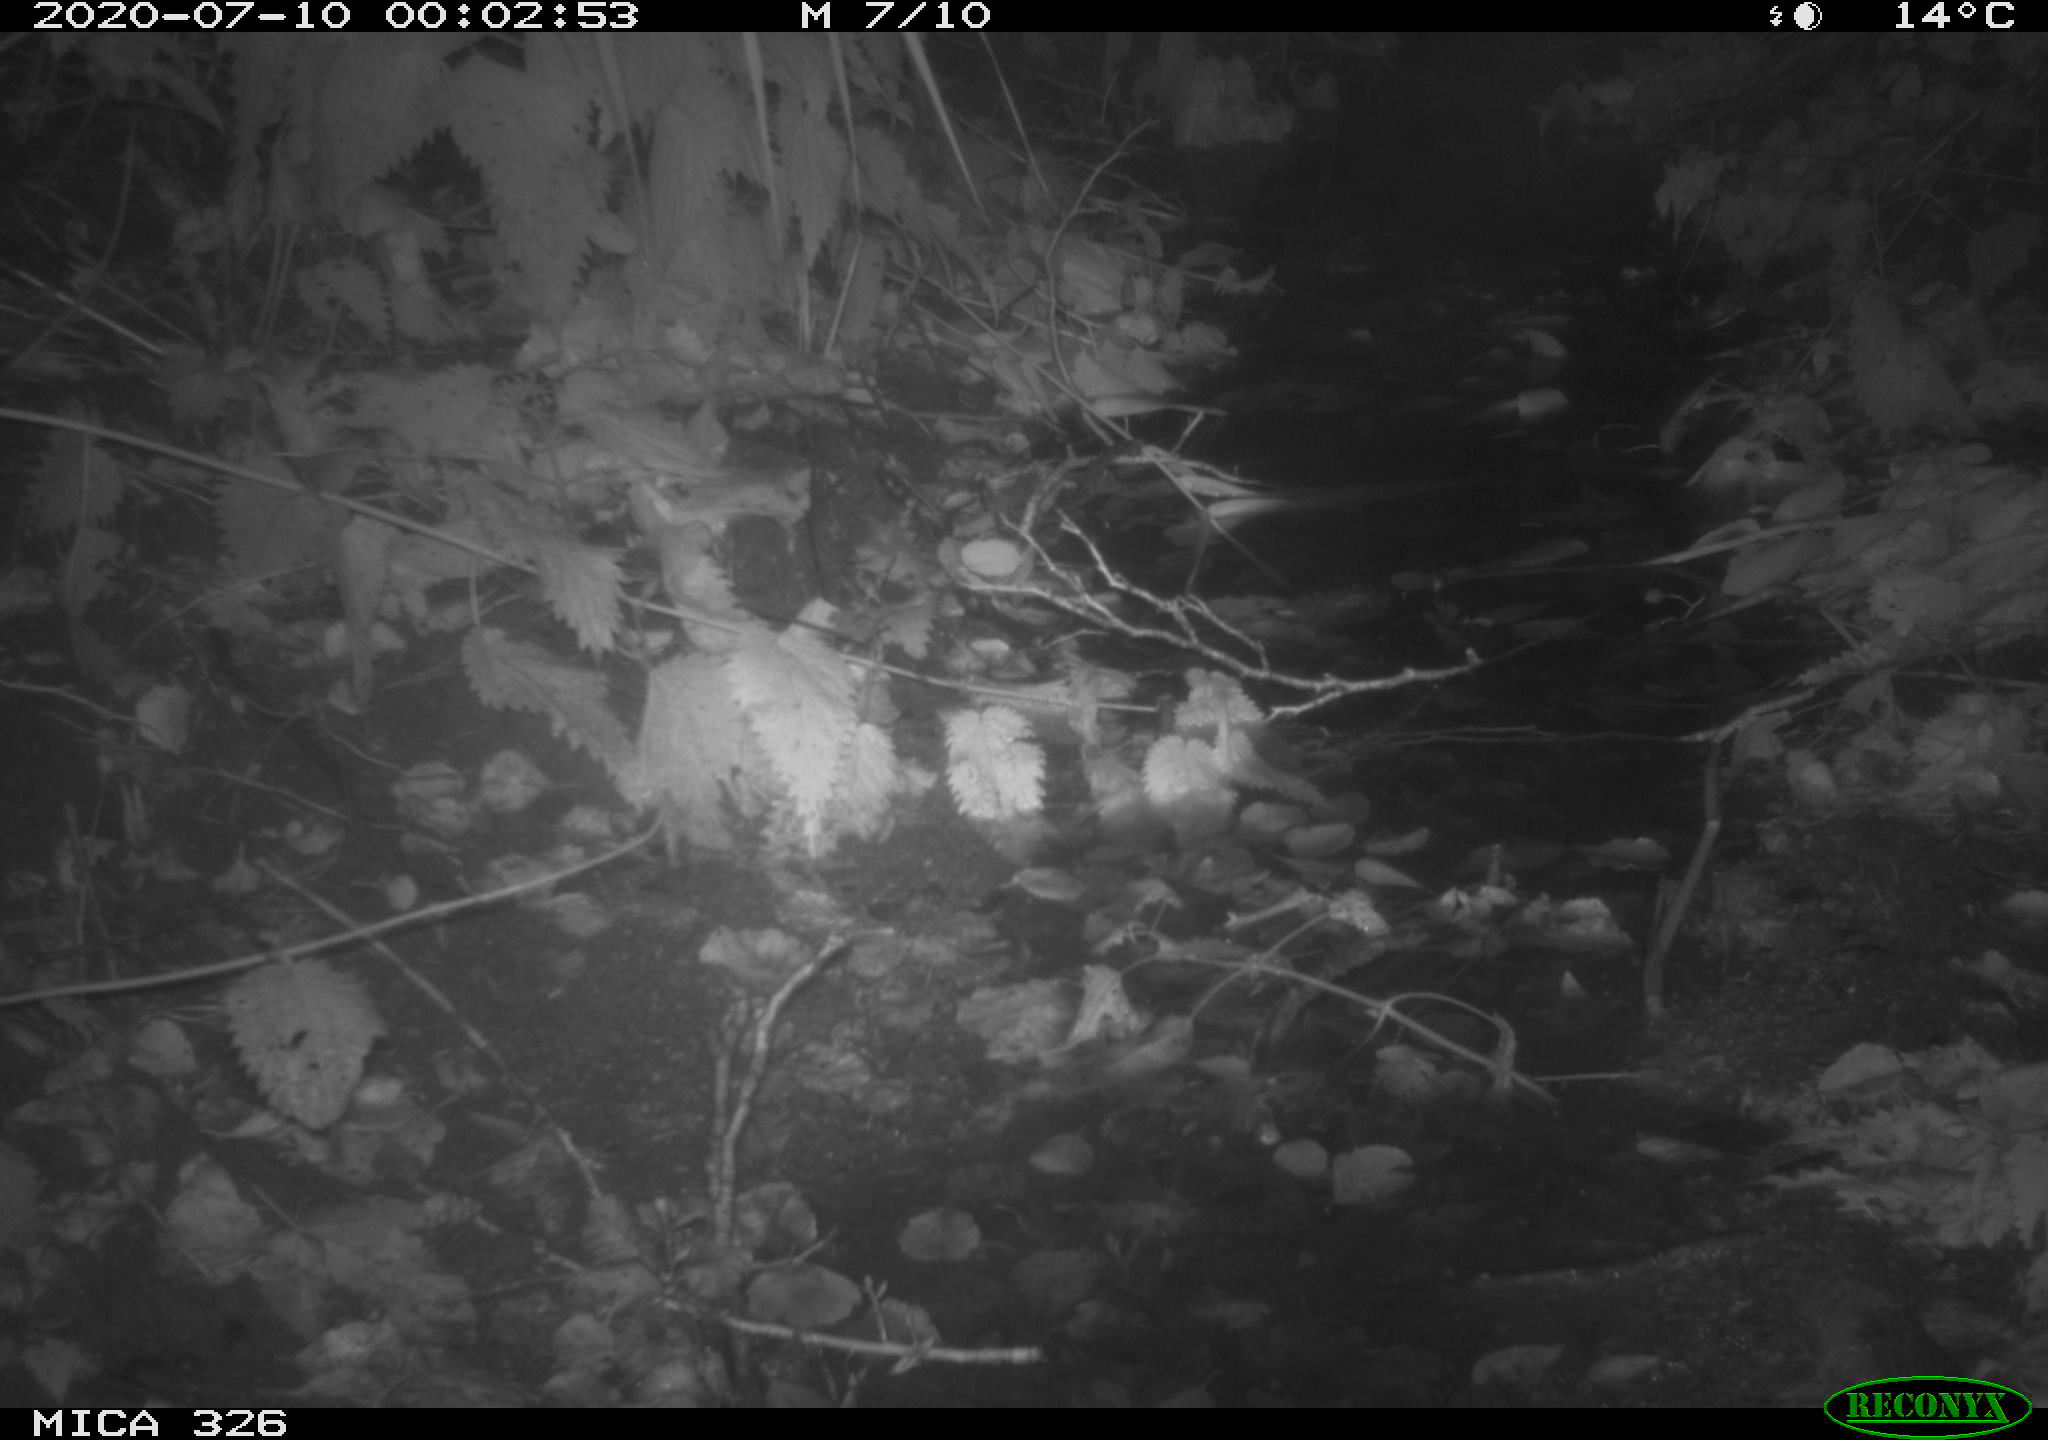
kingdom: Animalia
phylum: Chordata
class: Mammalia
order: Rodentia
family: Muridae
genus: Rattus
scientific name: Rattus norvegicus
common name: Brown rat
